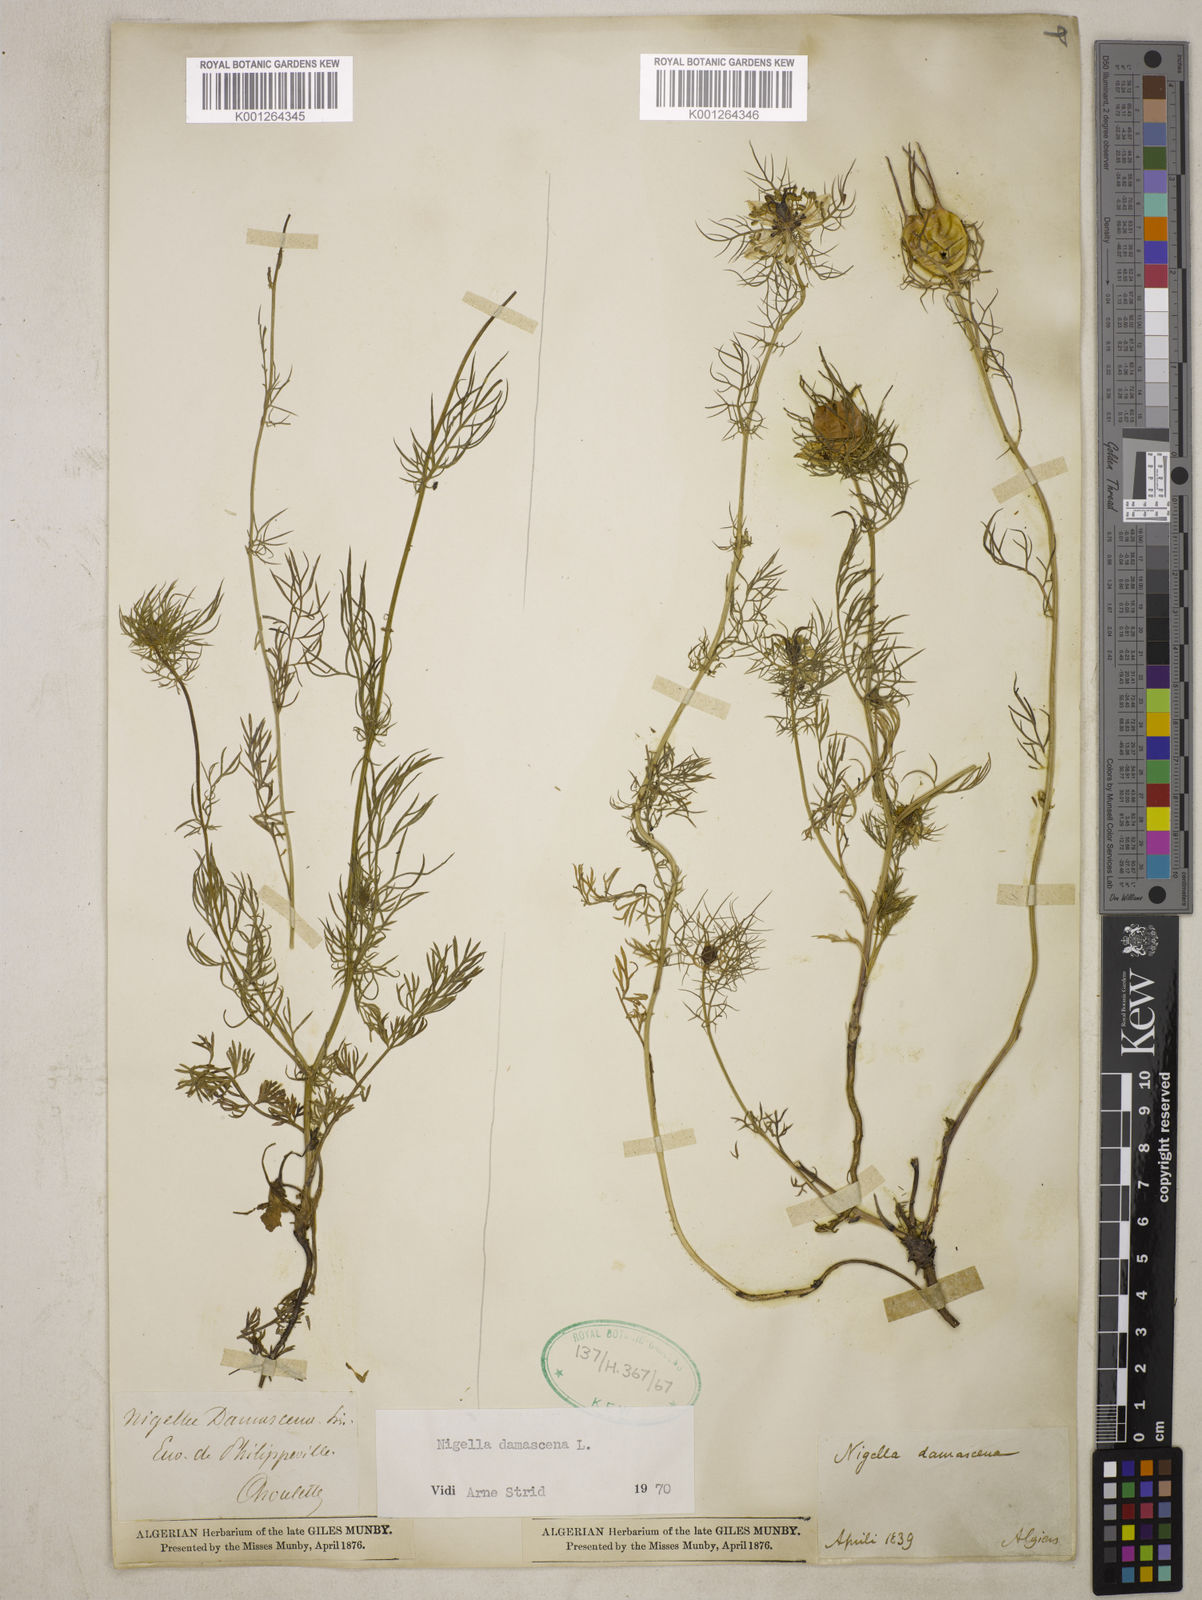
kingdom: Plantae
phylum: Tracheophyta
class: Magnoliopsida
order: Ranunculales
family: Ranunculaceae
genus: Nigella
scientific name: Nigella damascena
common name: Love-in-a-mist
